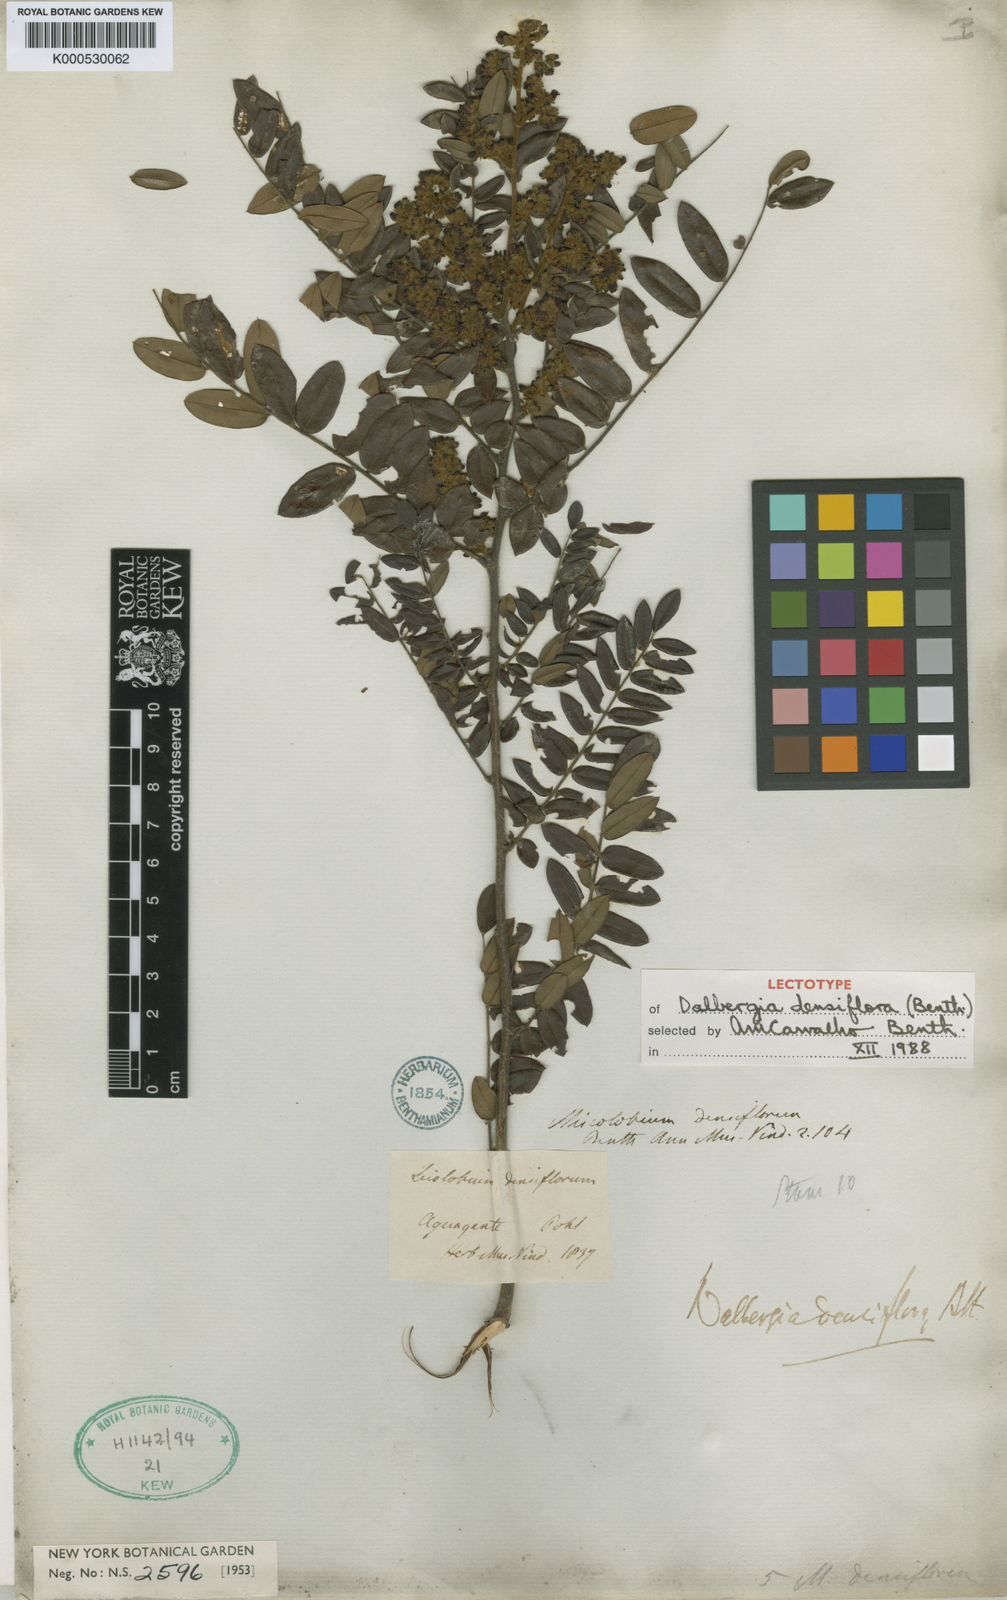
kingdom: Plantae
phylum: Tracheophyta
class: Magnoliopsida
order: Fabales
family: Fabaceae
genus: Dalbergia
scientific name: Dalbergia densiflora
